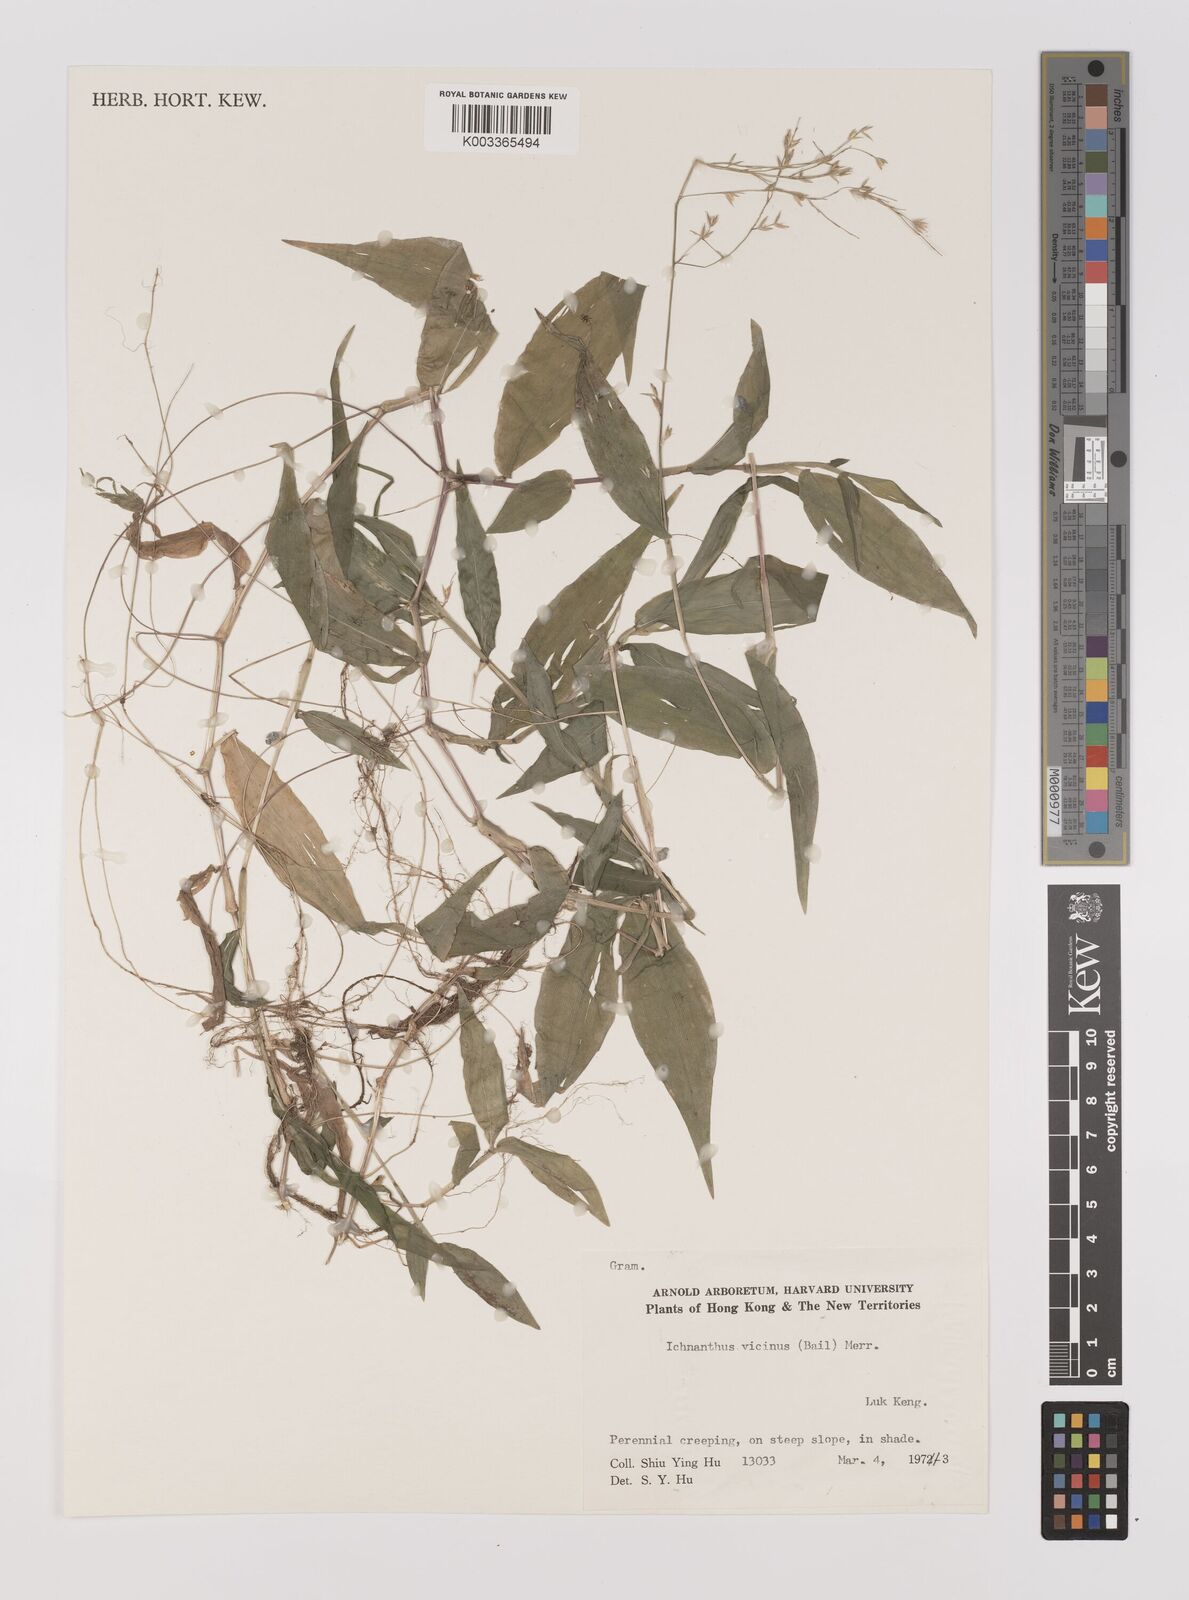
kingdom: Plantae
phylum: Tracheophyta
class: Liliopsida
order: Poales
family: Poaceae
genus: Ichnanthus
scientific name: Ichnanthus pallens
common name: Water grass
